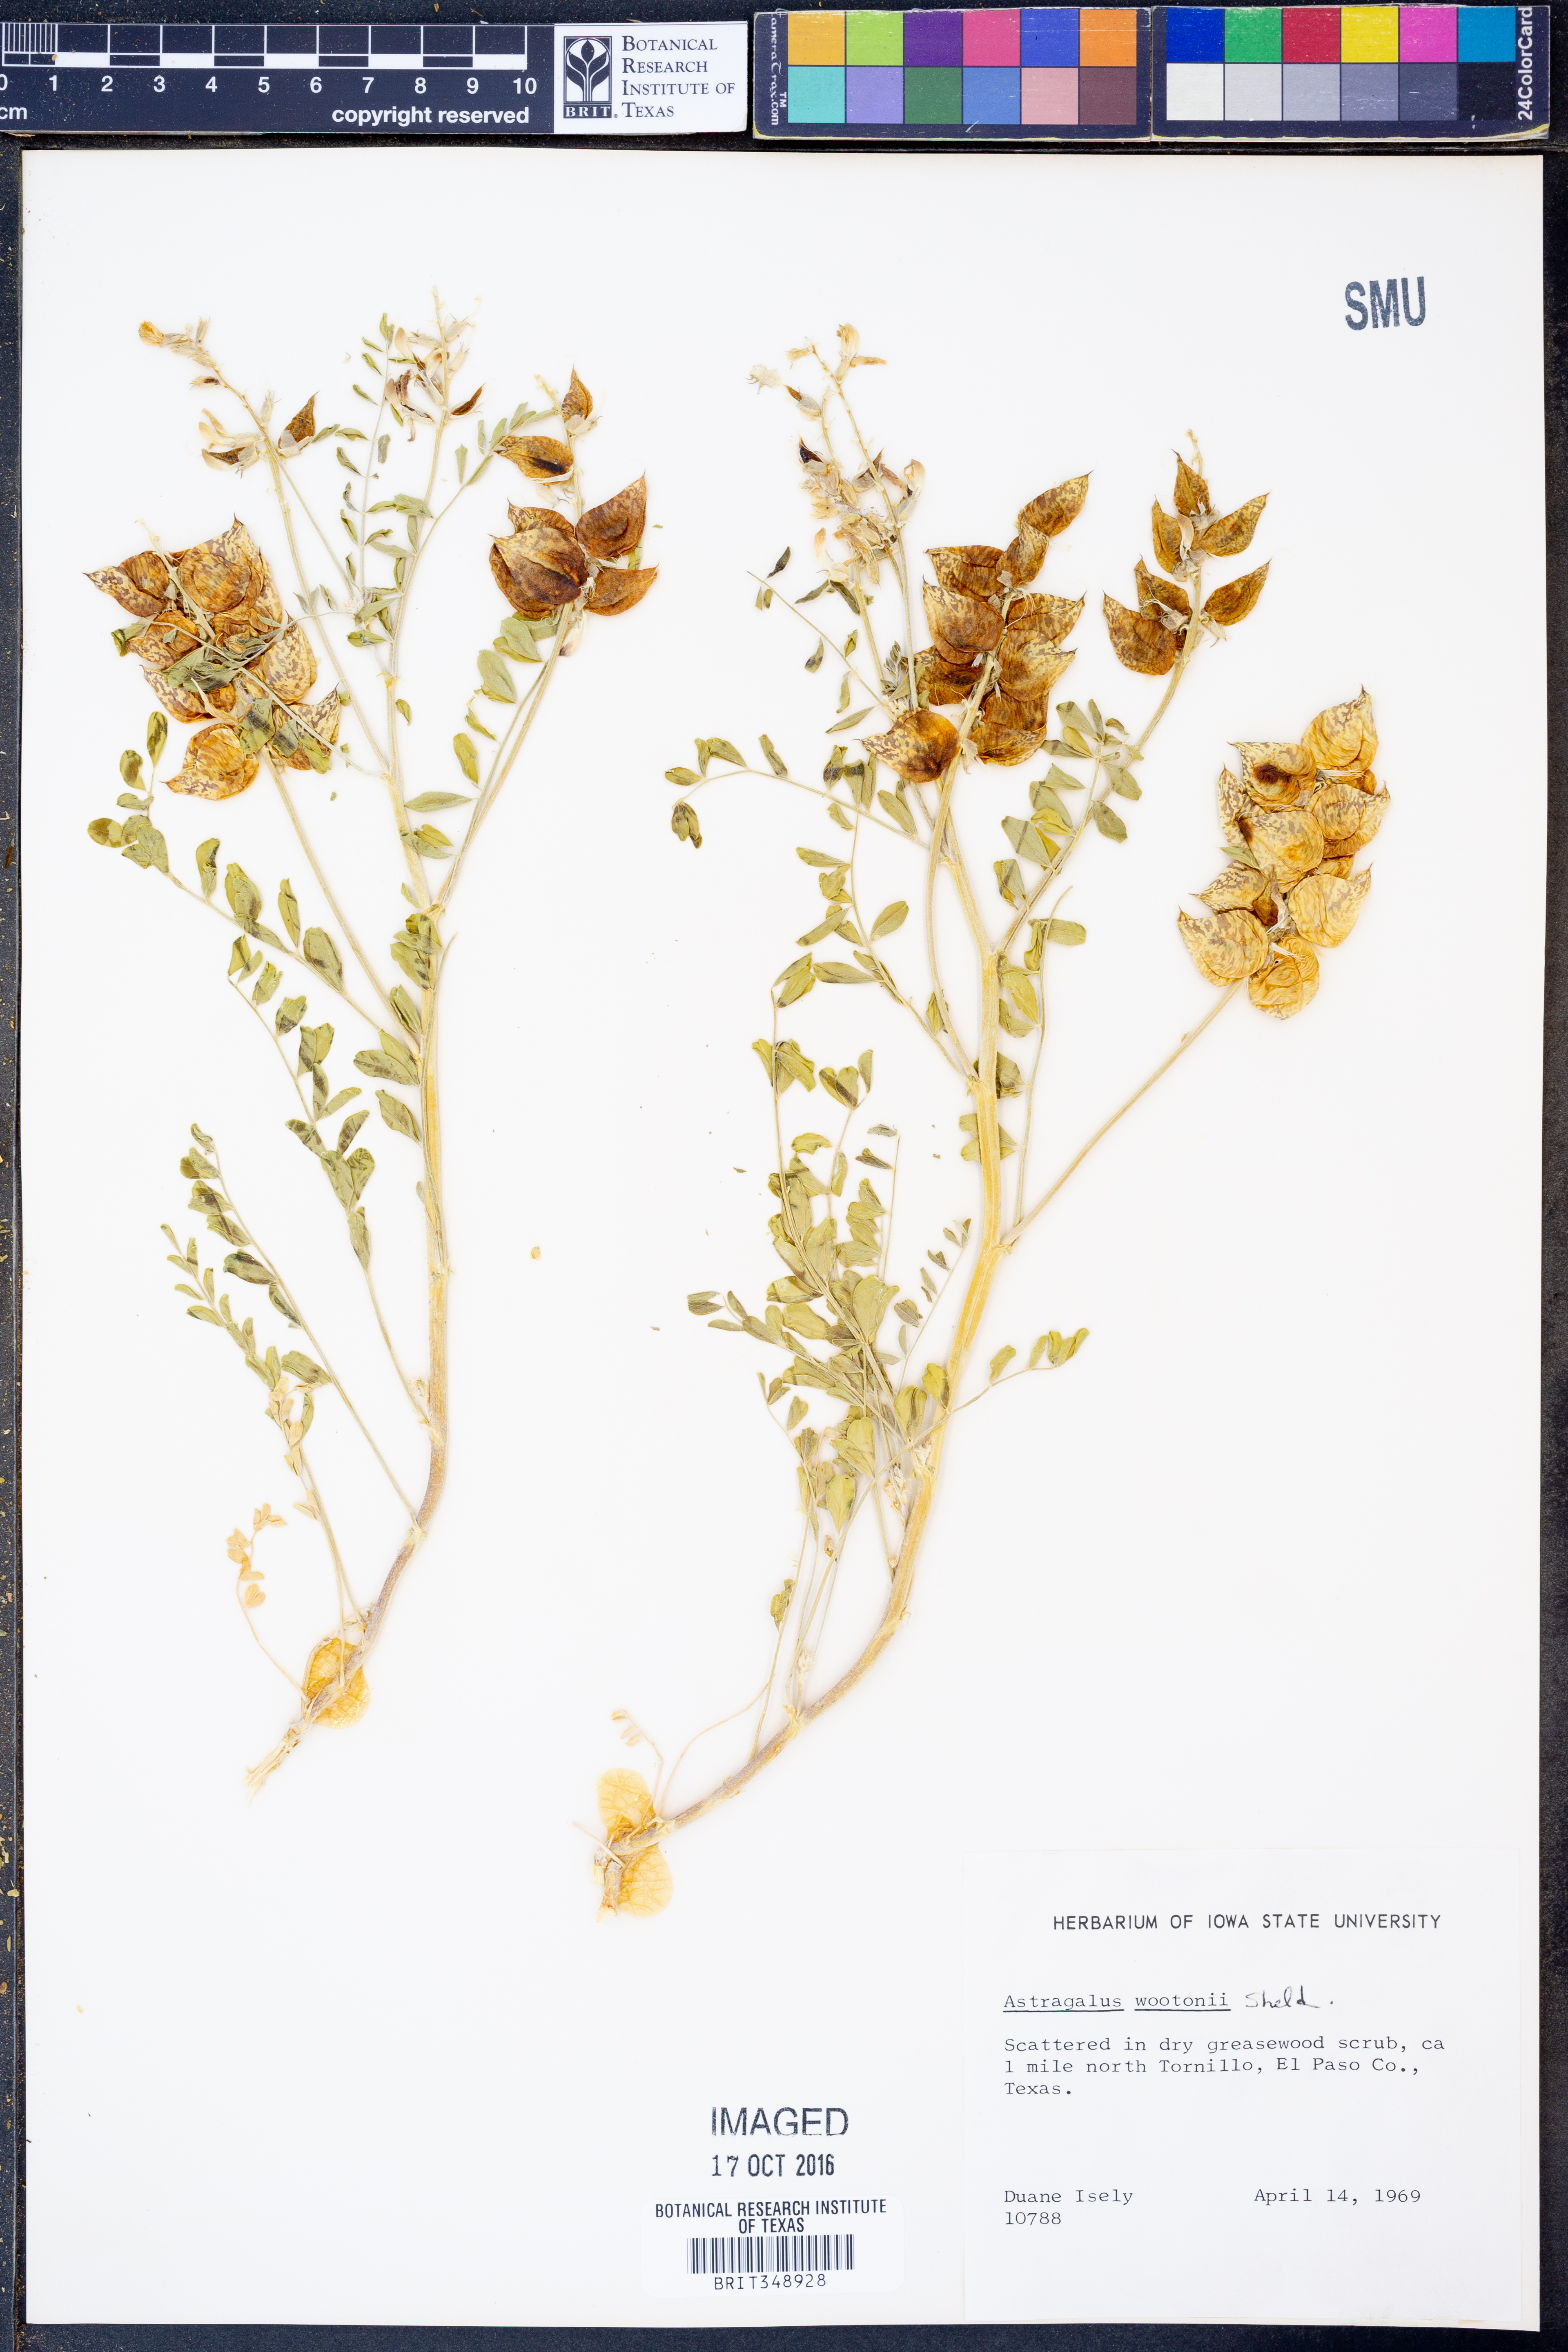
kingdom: Plantae
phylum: Tracheophyta
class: Magnoliopsida
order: Fabales
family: Fabaceae
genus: Astragalus
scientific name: Astragalus wootonii
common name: Wooton's milk-vetch
